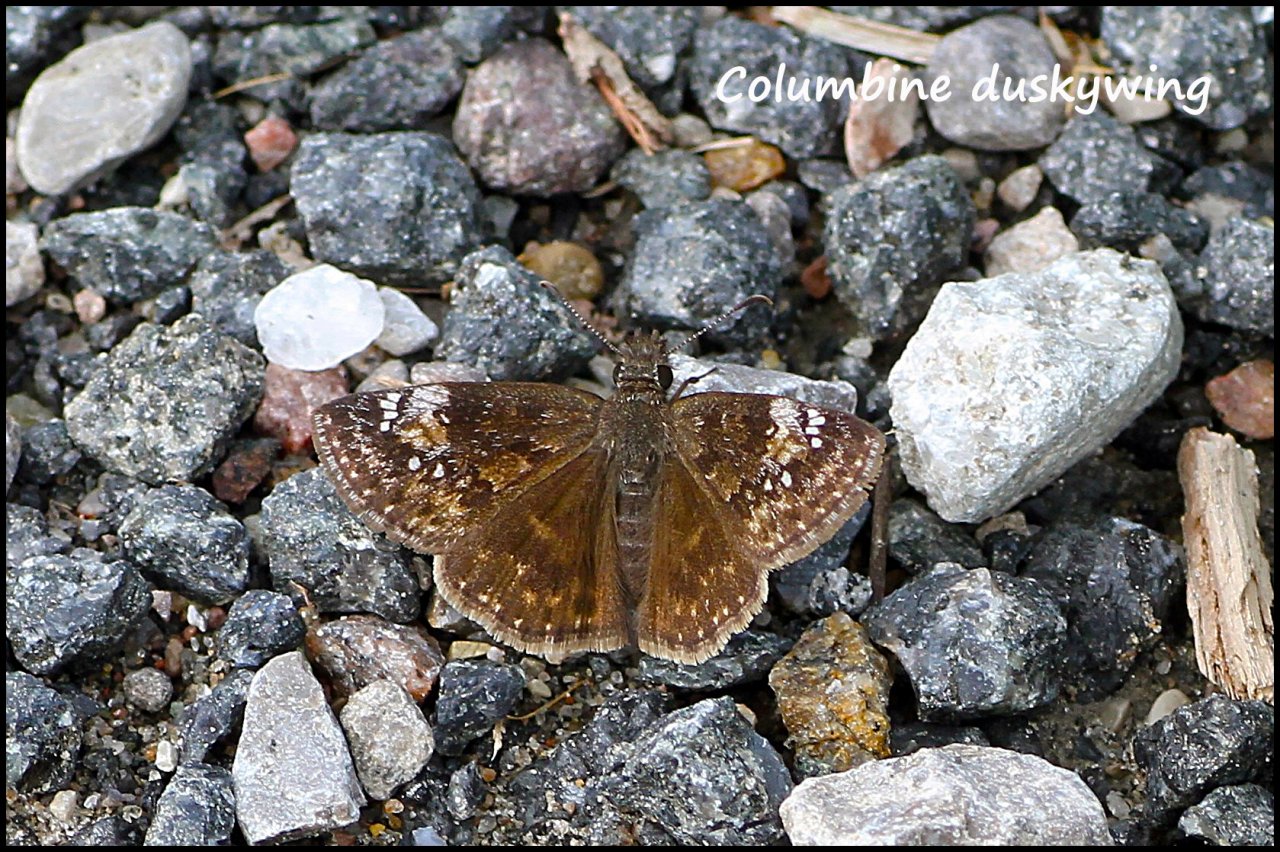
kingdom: Animalia
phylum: Arthropoda
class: Insecta
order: Lepidoptera
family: Hesperiidae
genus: Gesta
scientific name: Gesta
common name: Columbine Duskywing
